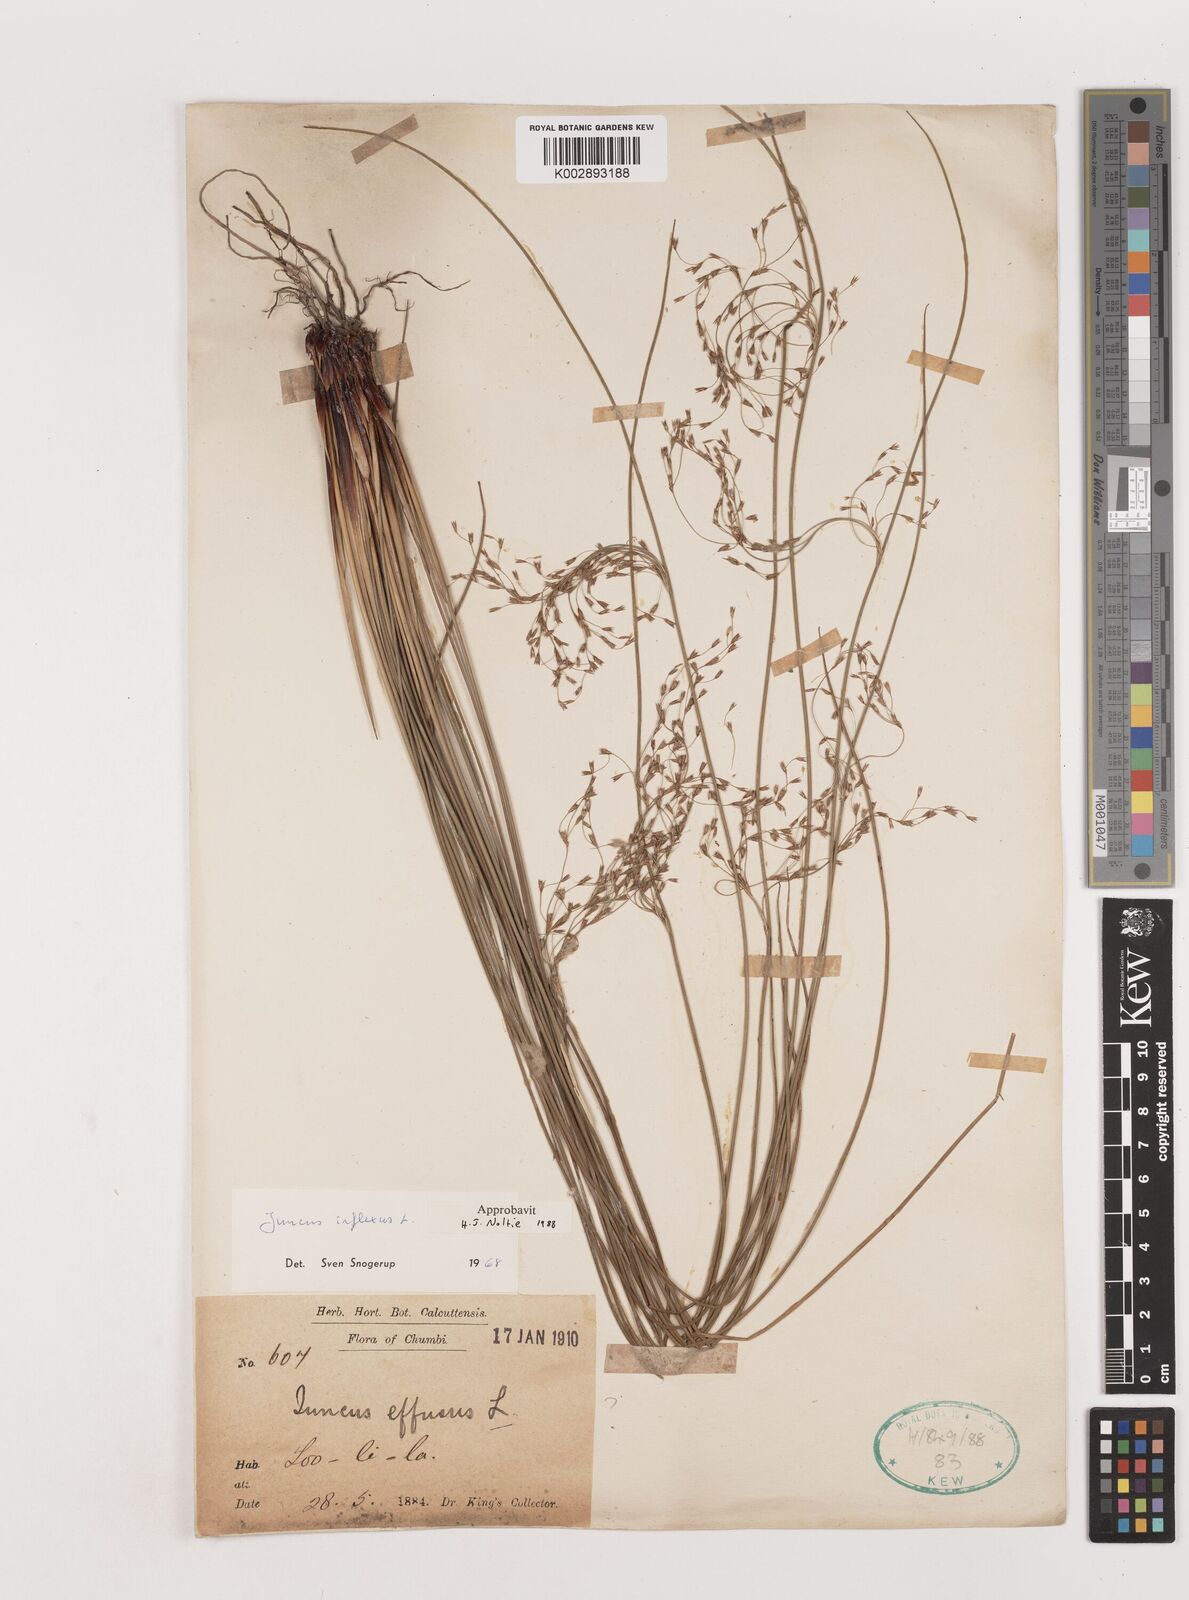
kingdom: Plantae
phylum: Tracheophyta
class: Liliopsida
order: Poales
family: Juncaceae
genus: Juncus
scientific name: Juncus inflexus
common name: Hard rush
